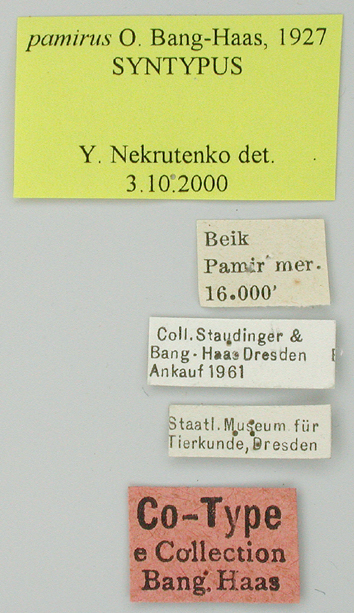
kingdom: Animalia
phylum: Arthropoda
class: Insecta
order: Lepidoptera
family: Papilionidae
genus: Parnassius
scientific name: Parnassius jacquemontii
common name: Keeled apollo
